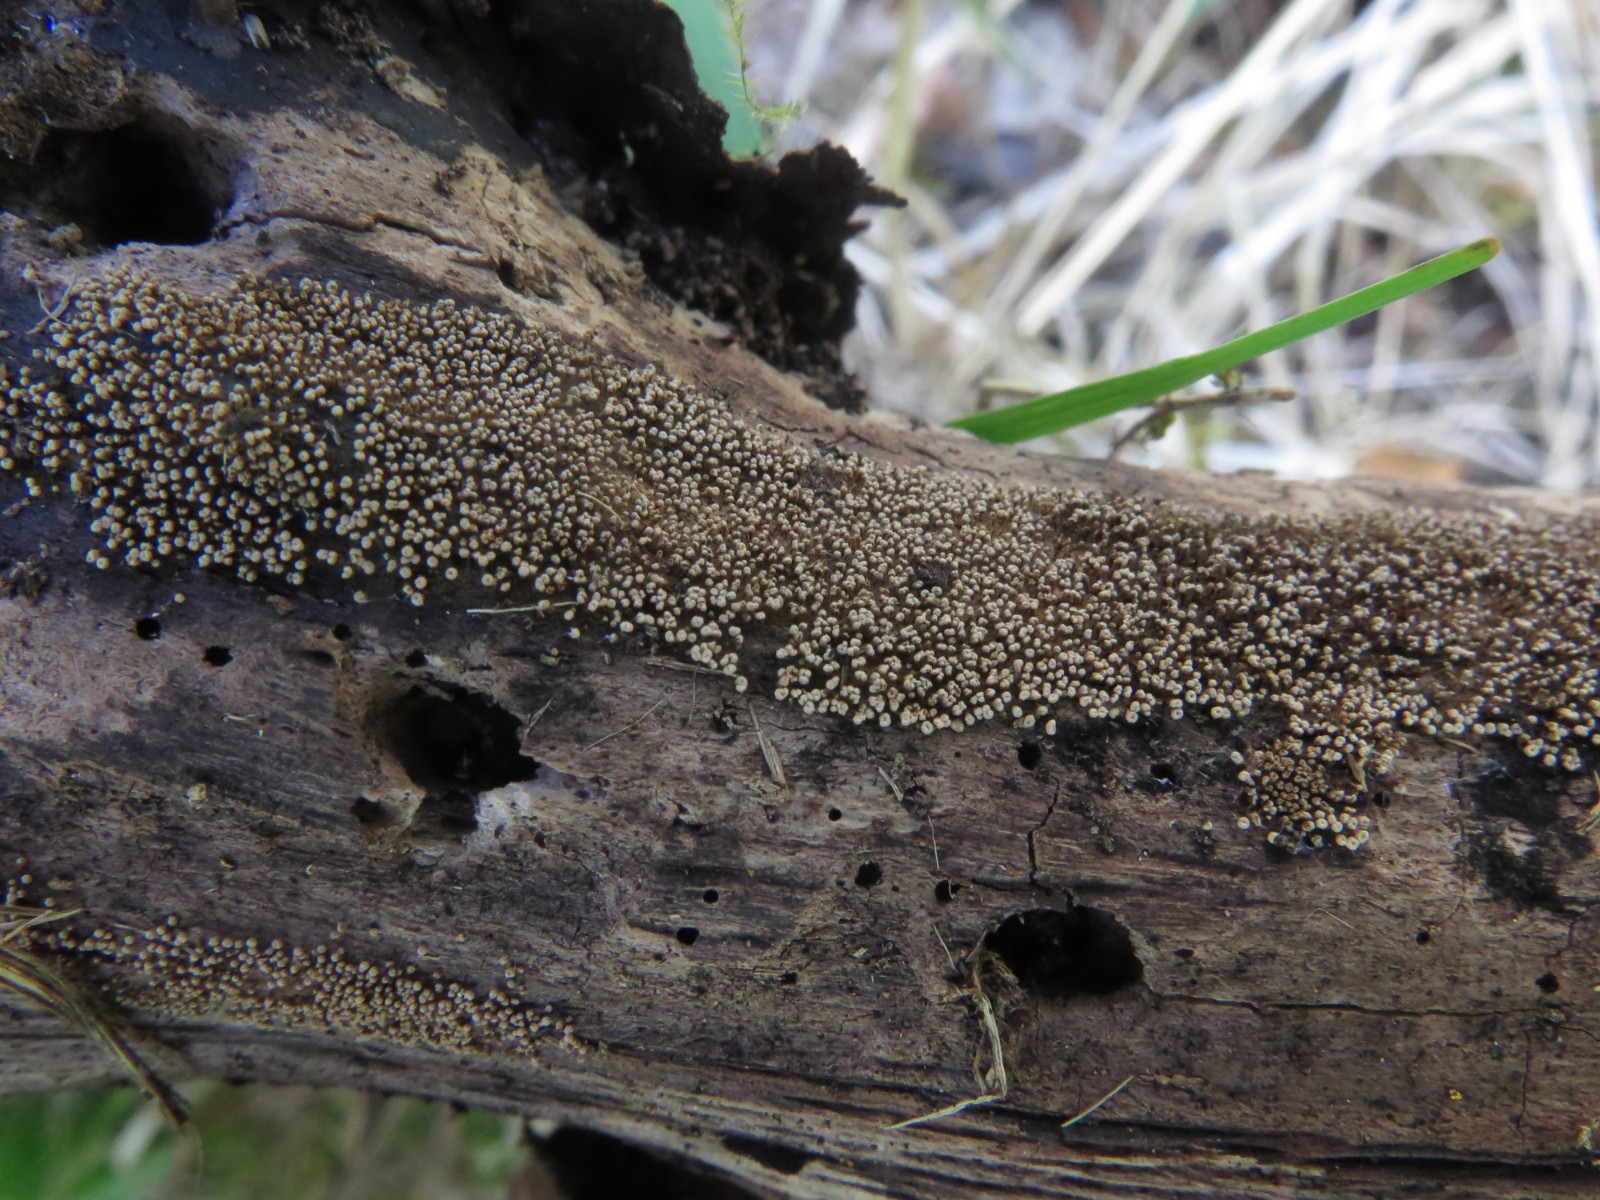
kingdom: Fungi
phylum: Basidiomycota
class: Agaricomycetes
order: Agaricales
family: Niaceae
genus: Merismodes
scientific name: Merismodes anomala
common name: almindelig læderskål
